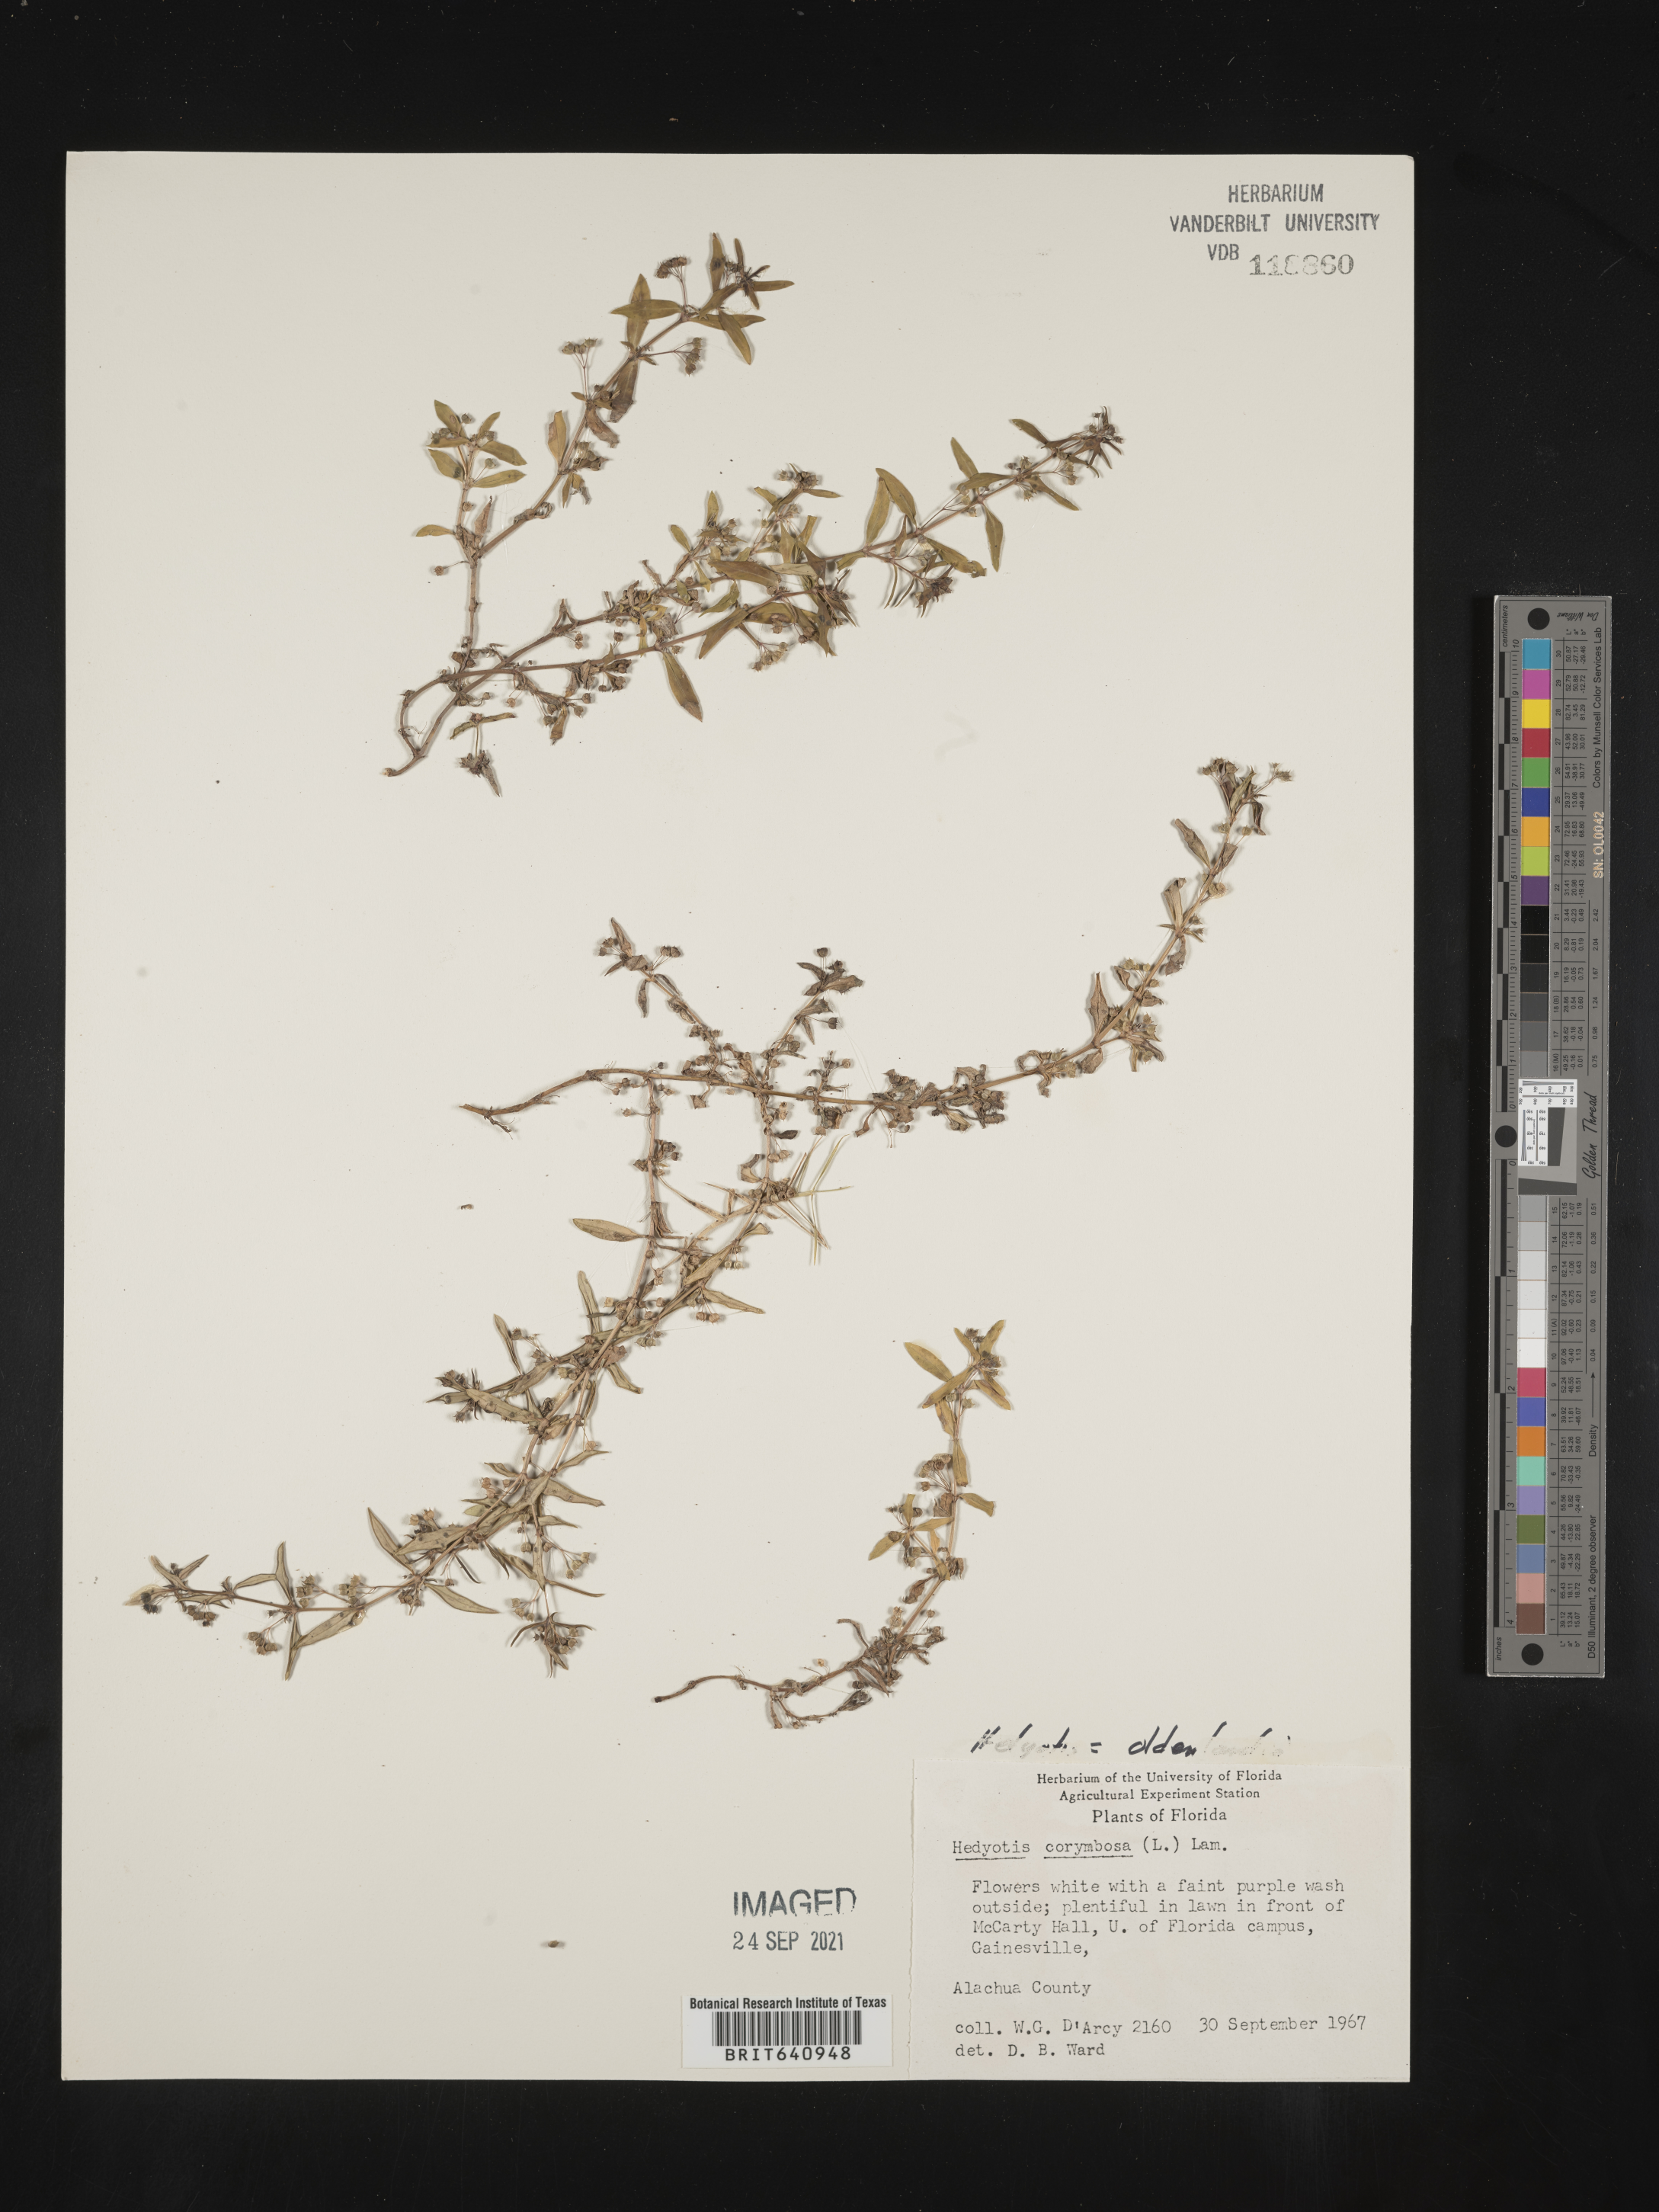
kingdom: Plantae
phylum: Tracheophyta
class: Magnoliopsida
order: Gentianales
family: Rubiaceae
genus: Oldenlandia
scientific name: Oldenlandia corymbosa
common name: Flat-top mille graines
